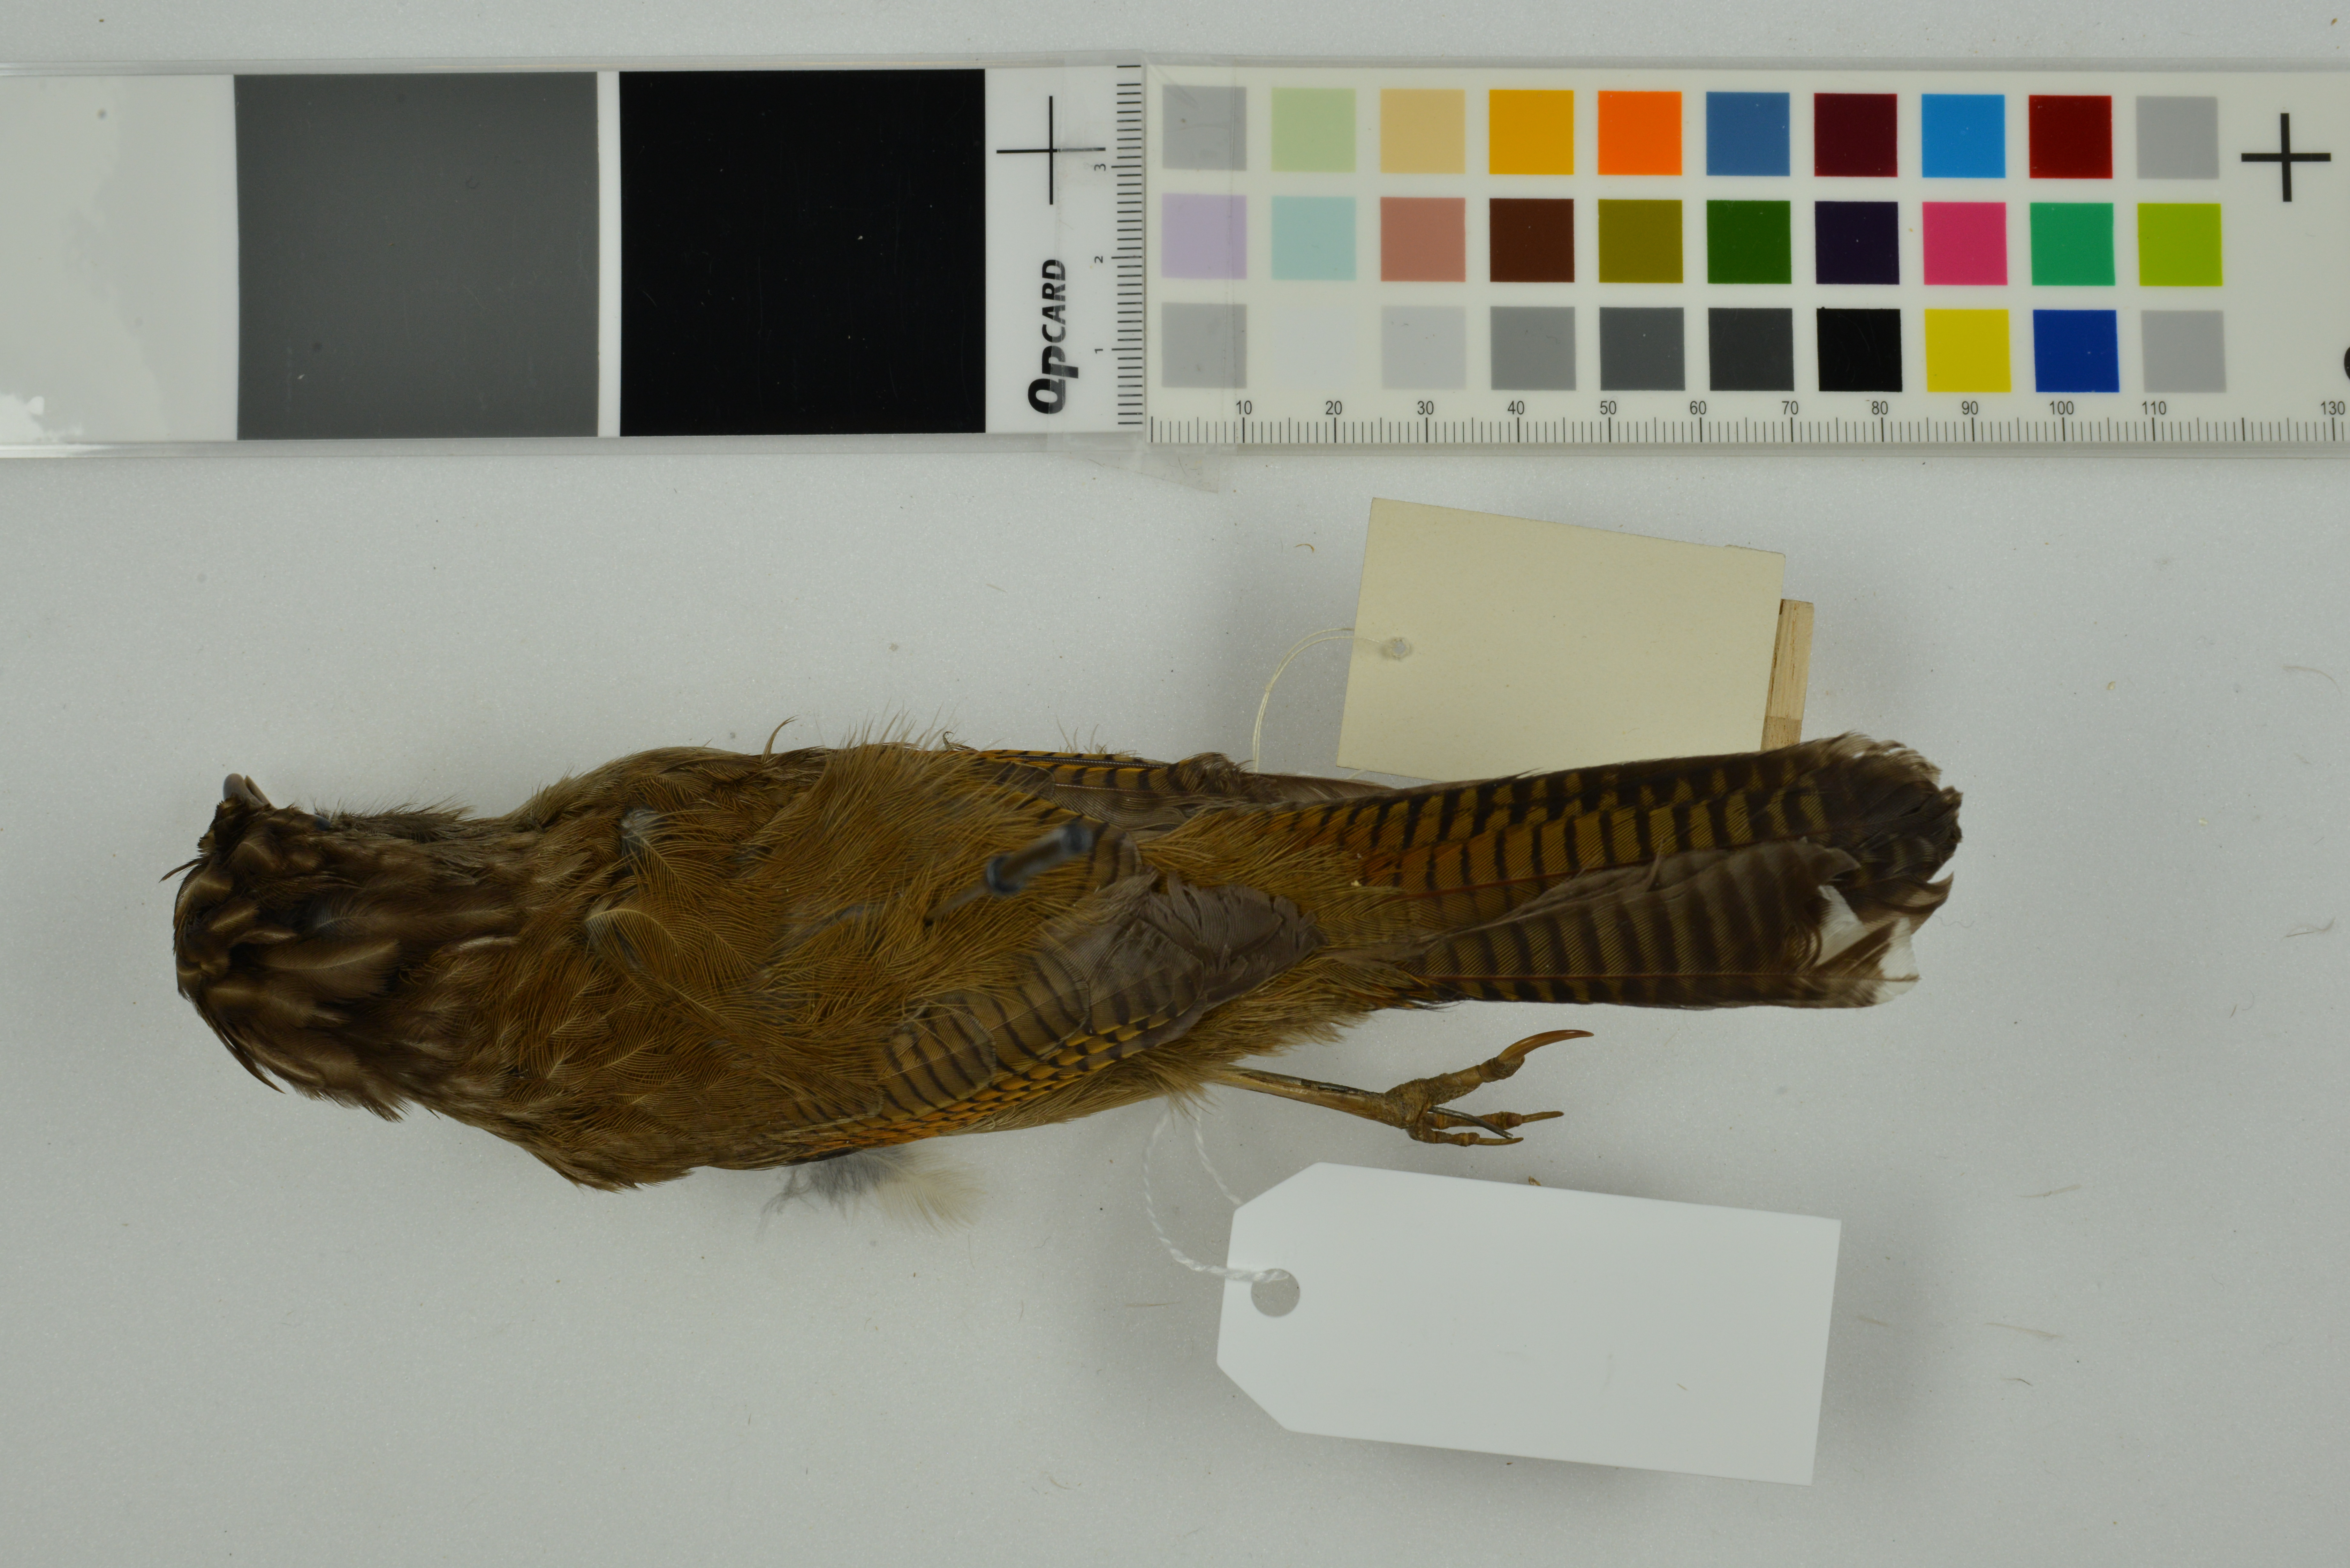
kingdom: Animalia
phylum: Chordata
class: Aves
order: Passeriformes
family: Leiothrichidae
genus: Actinodura
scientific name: Actinodura nipalensis
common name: Hoary-throated barwing
